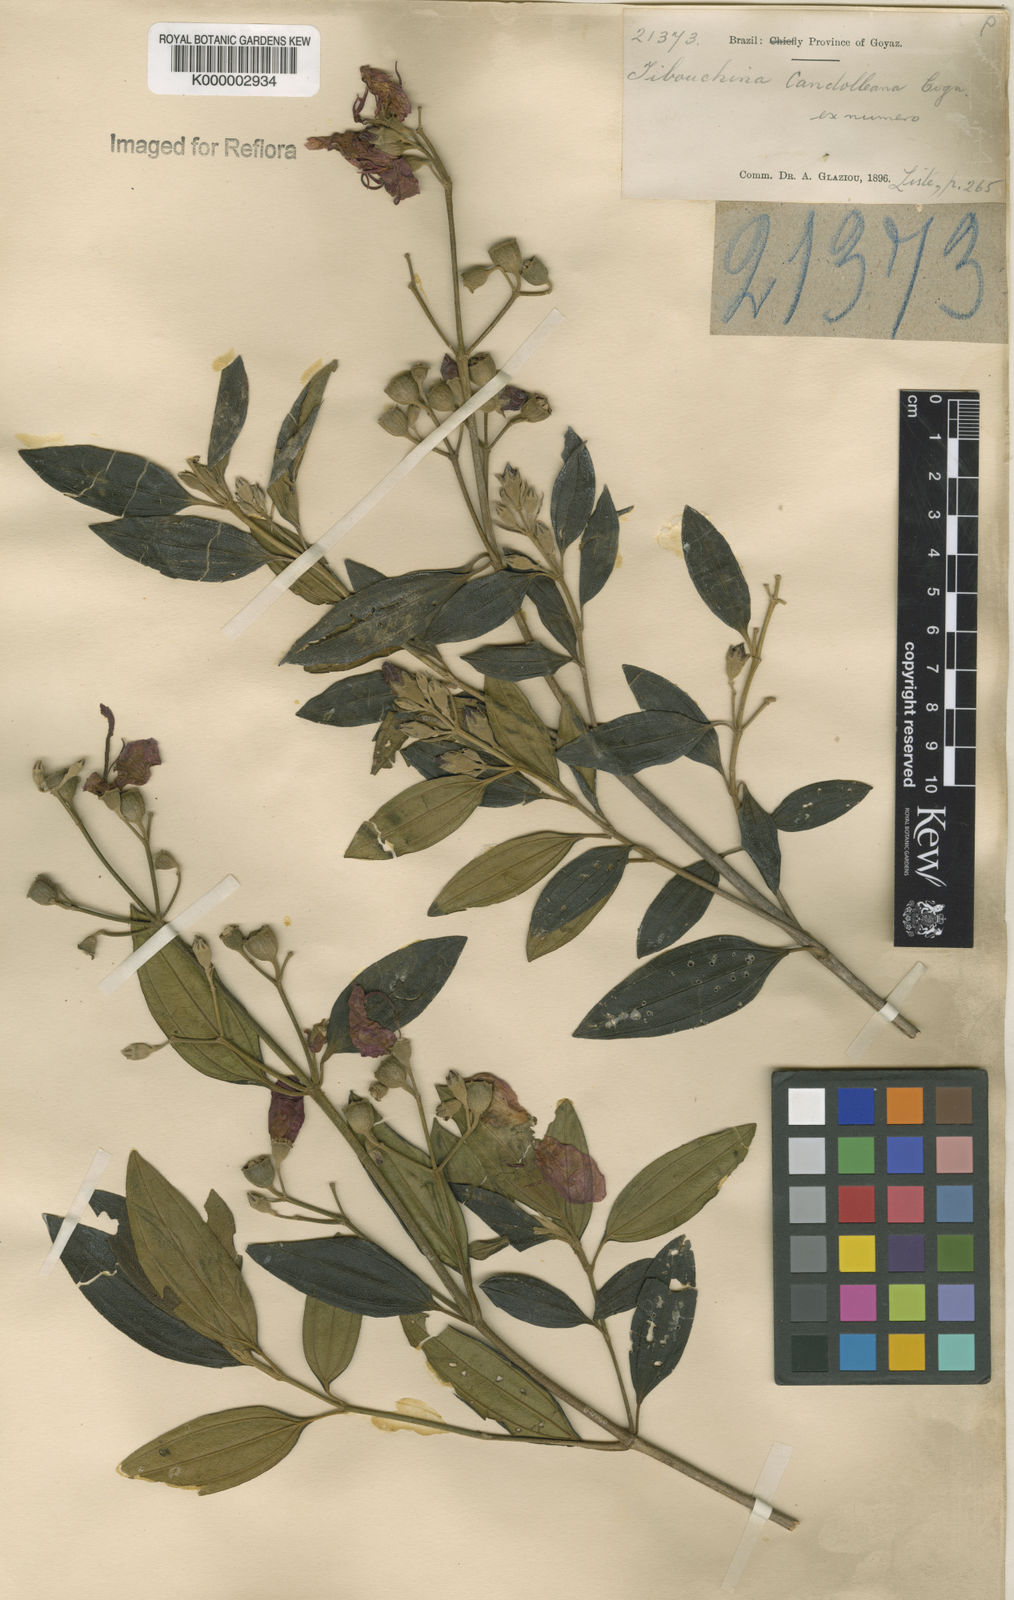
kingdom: Plantae
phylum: Tracheophyta
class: Magnoliopsida
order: Myrtales
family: Melastomataceae
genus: Pleroma
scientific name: Pleroma candolleanum
